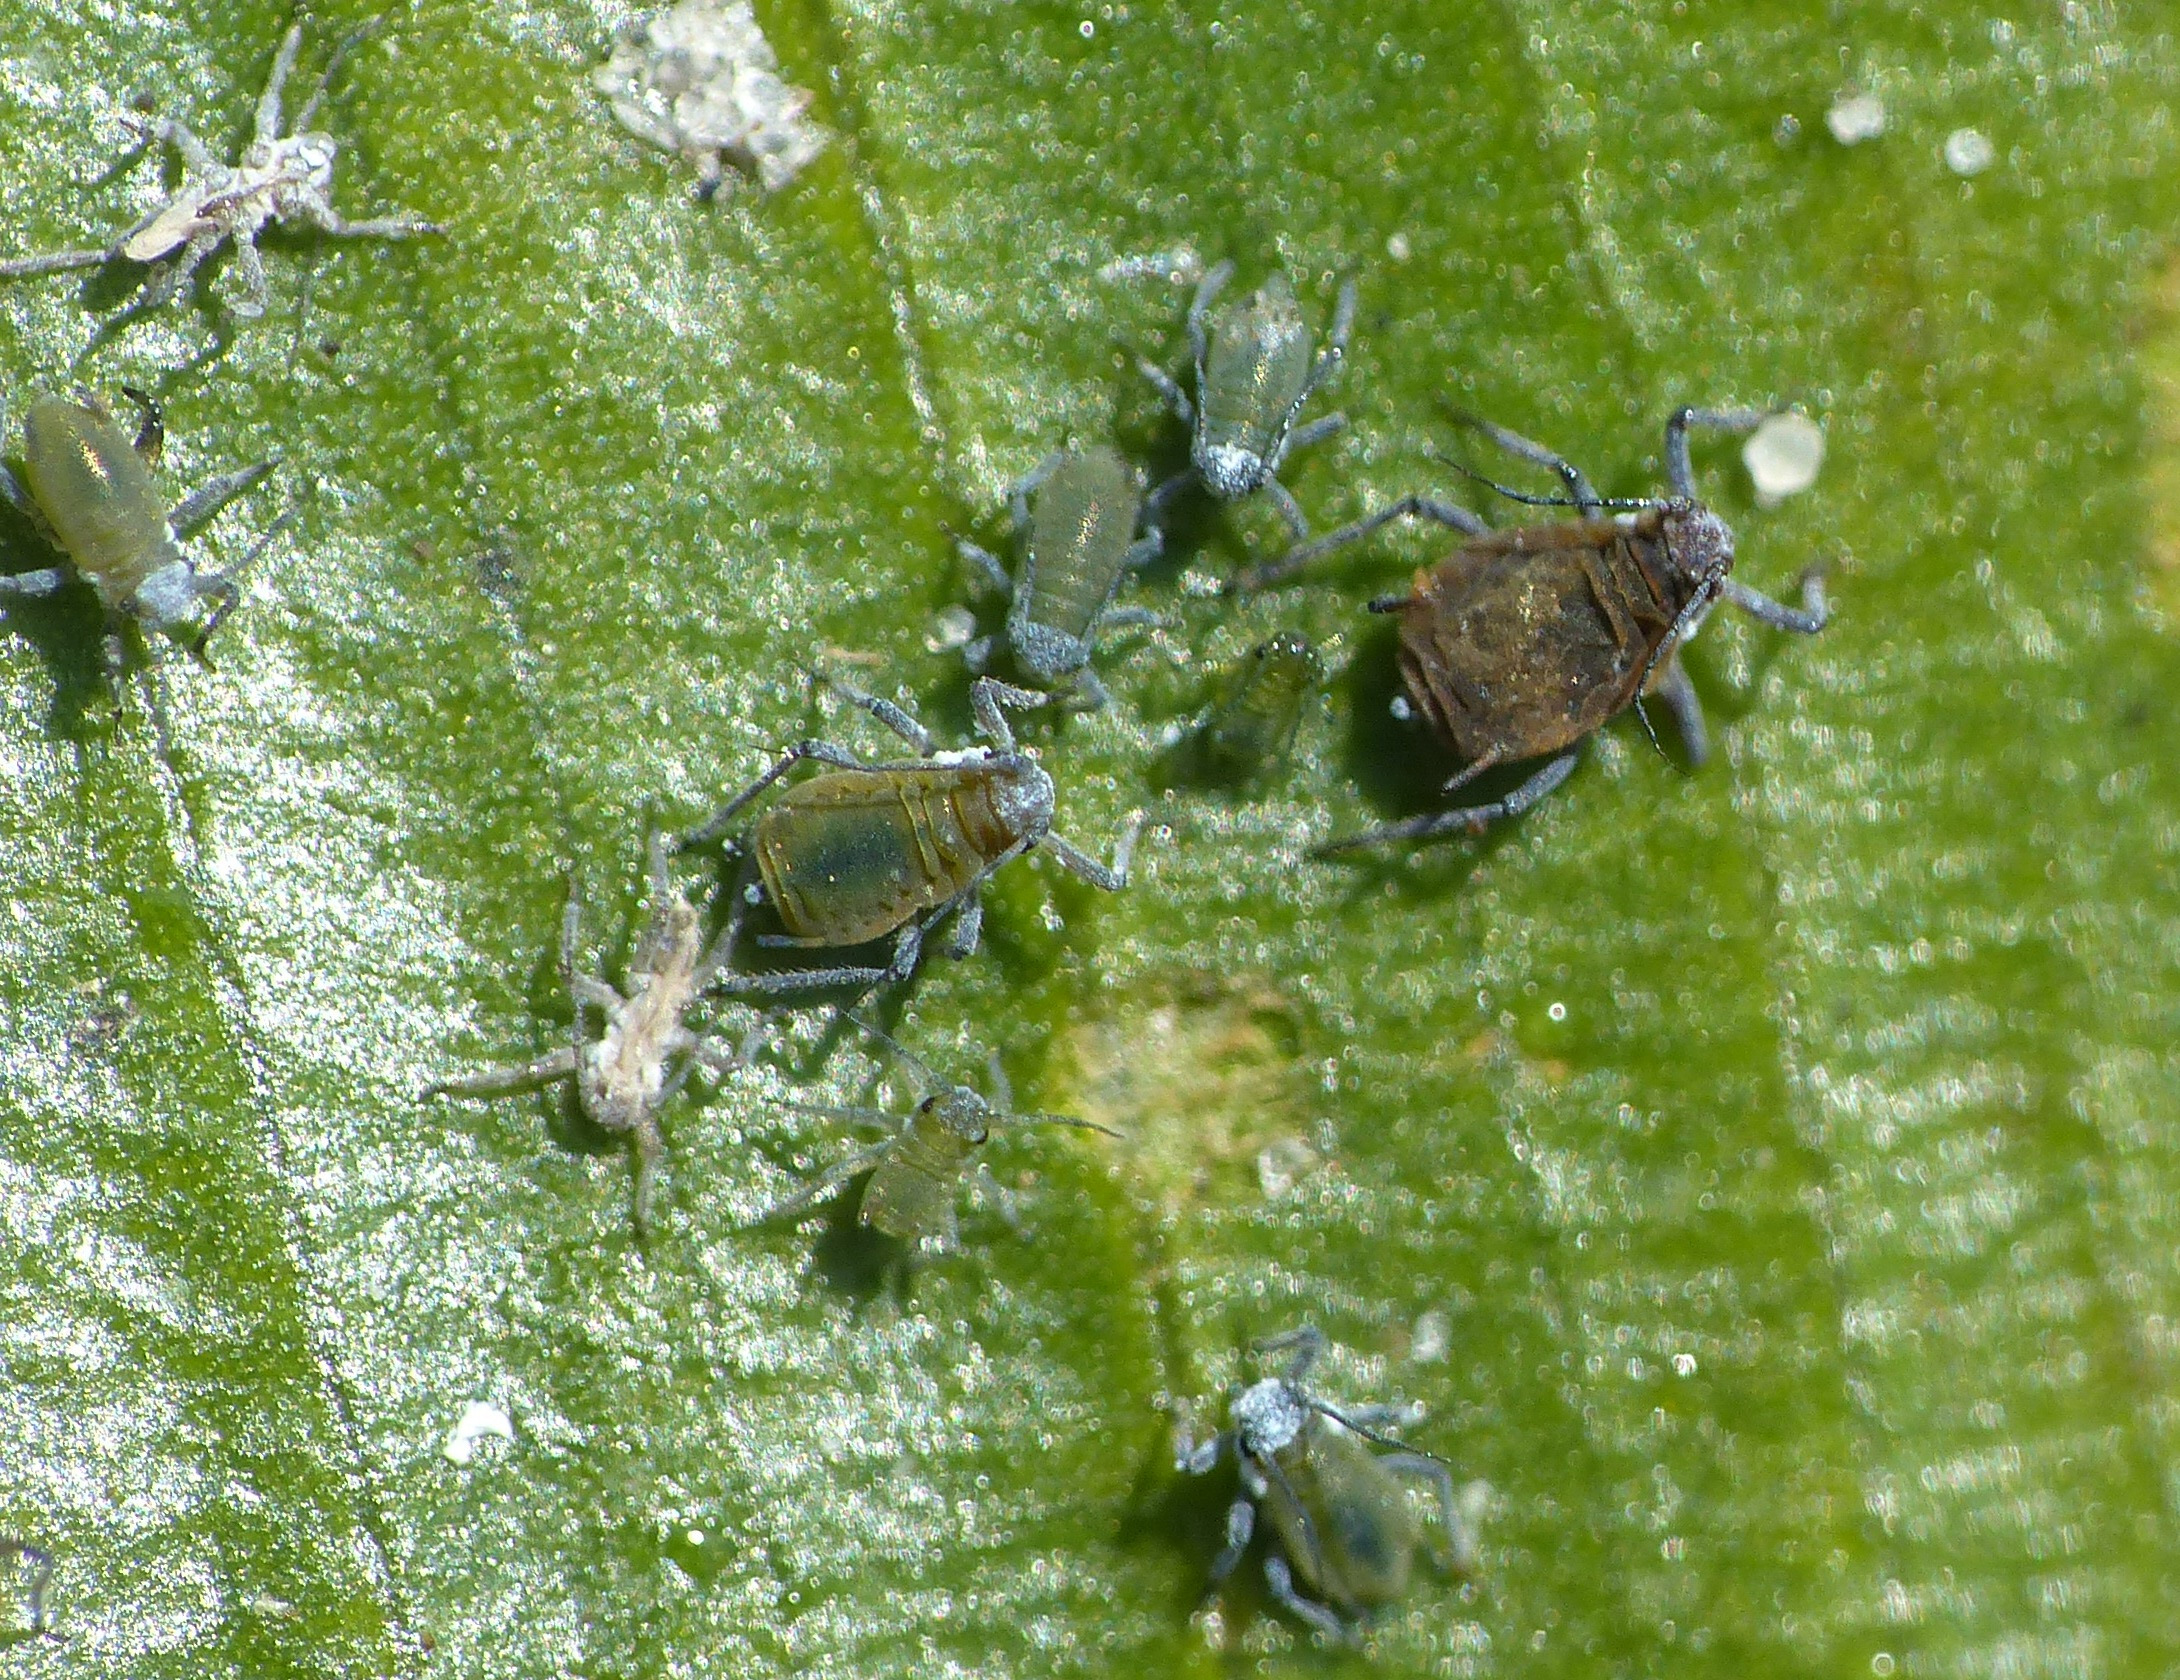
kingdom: Animalia
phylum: Arthropoda
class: Insecta
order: Hemiptera
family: Aphididae
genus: Rhopalosiphum
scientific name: Rhopalosiphum nymphaeae
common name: Åkandebladlus
